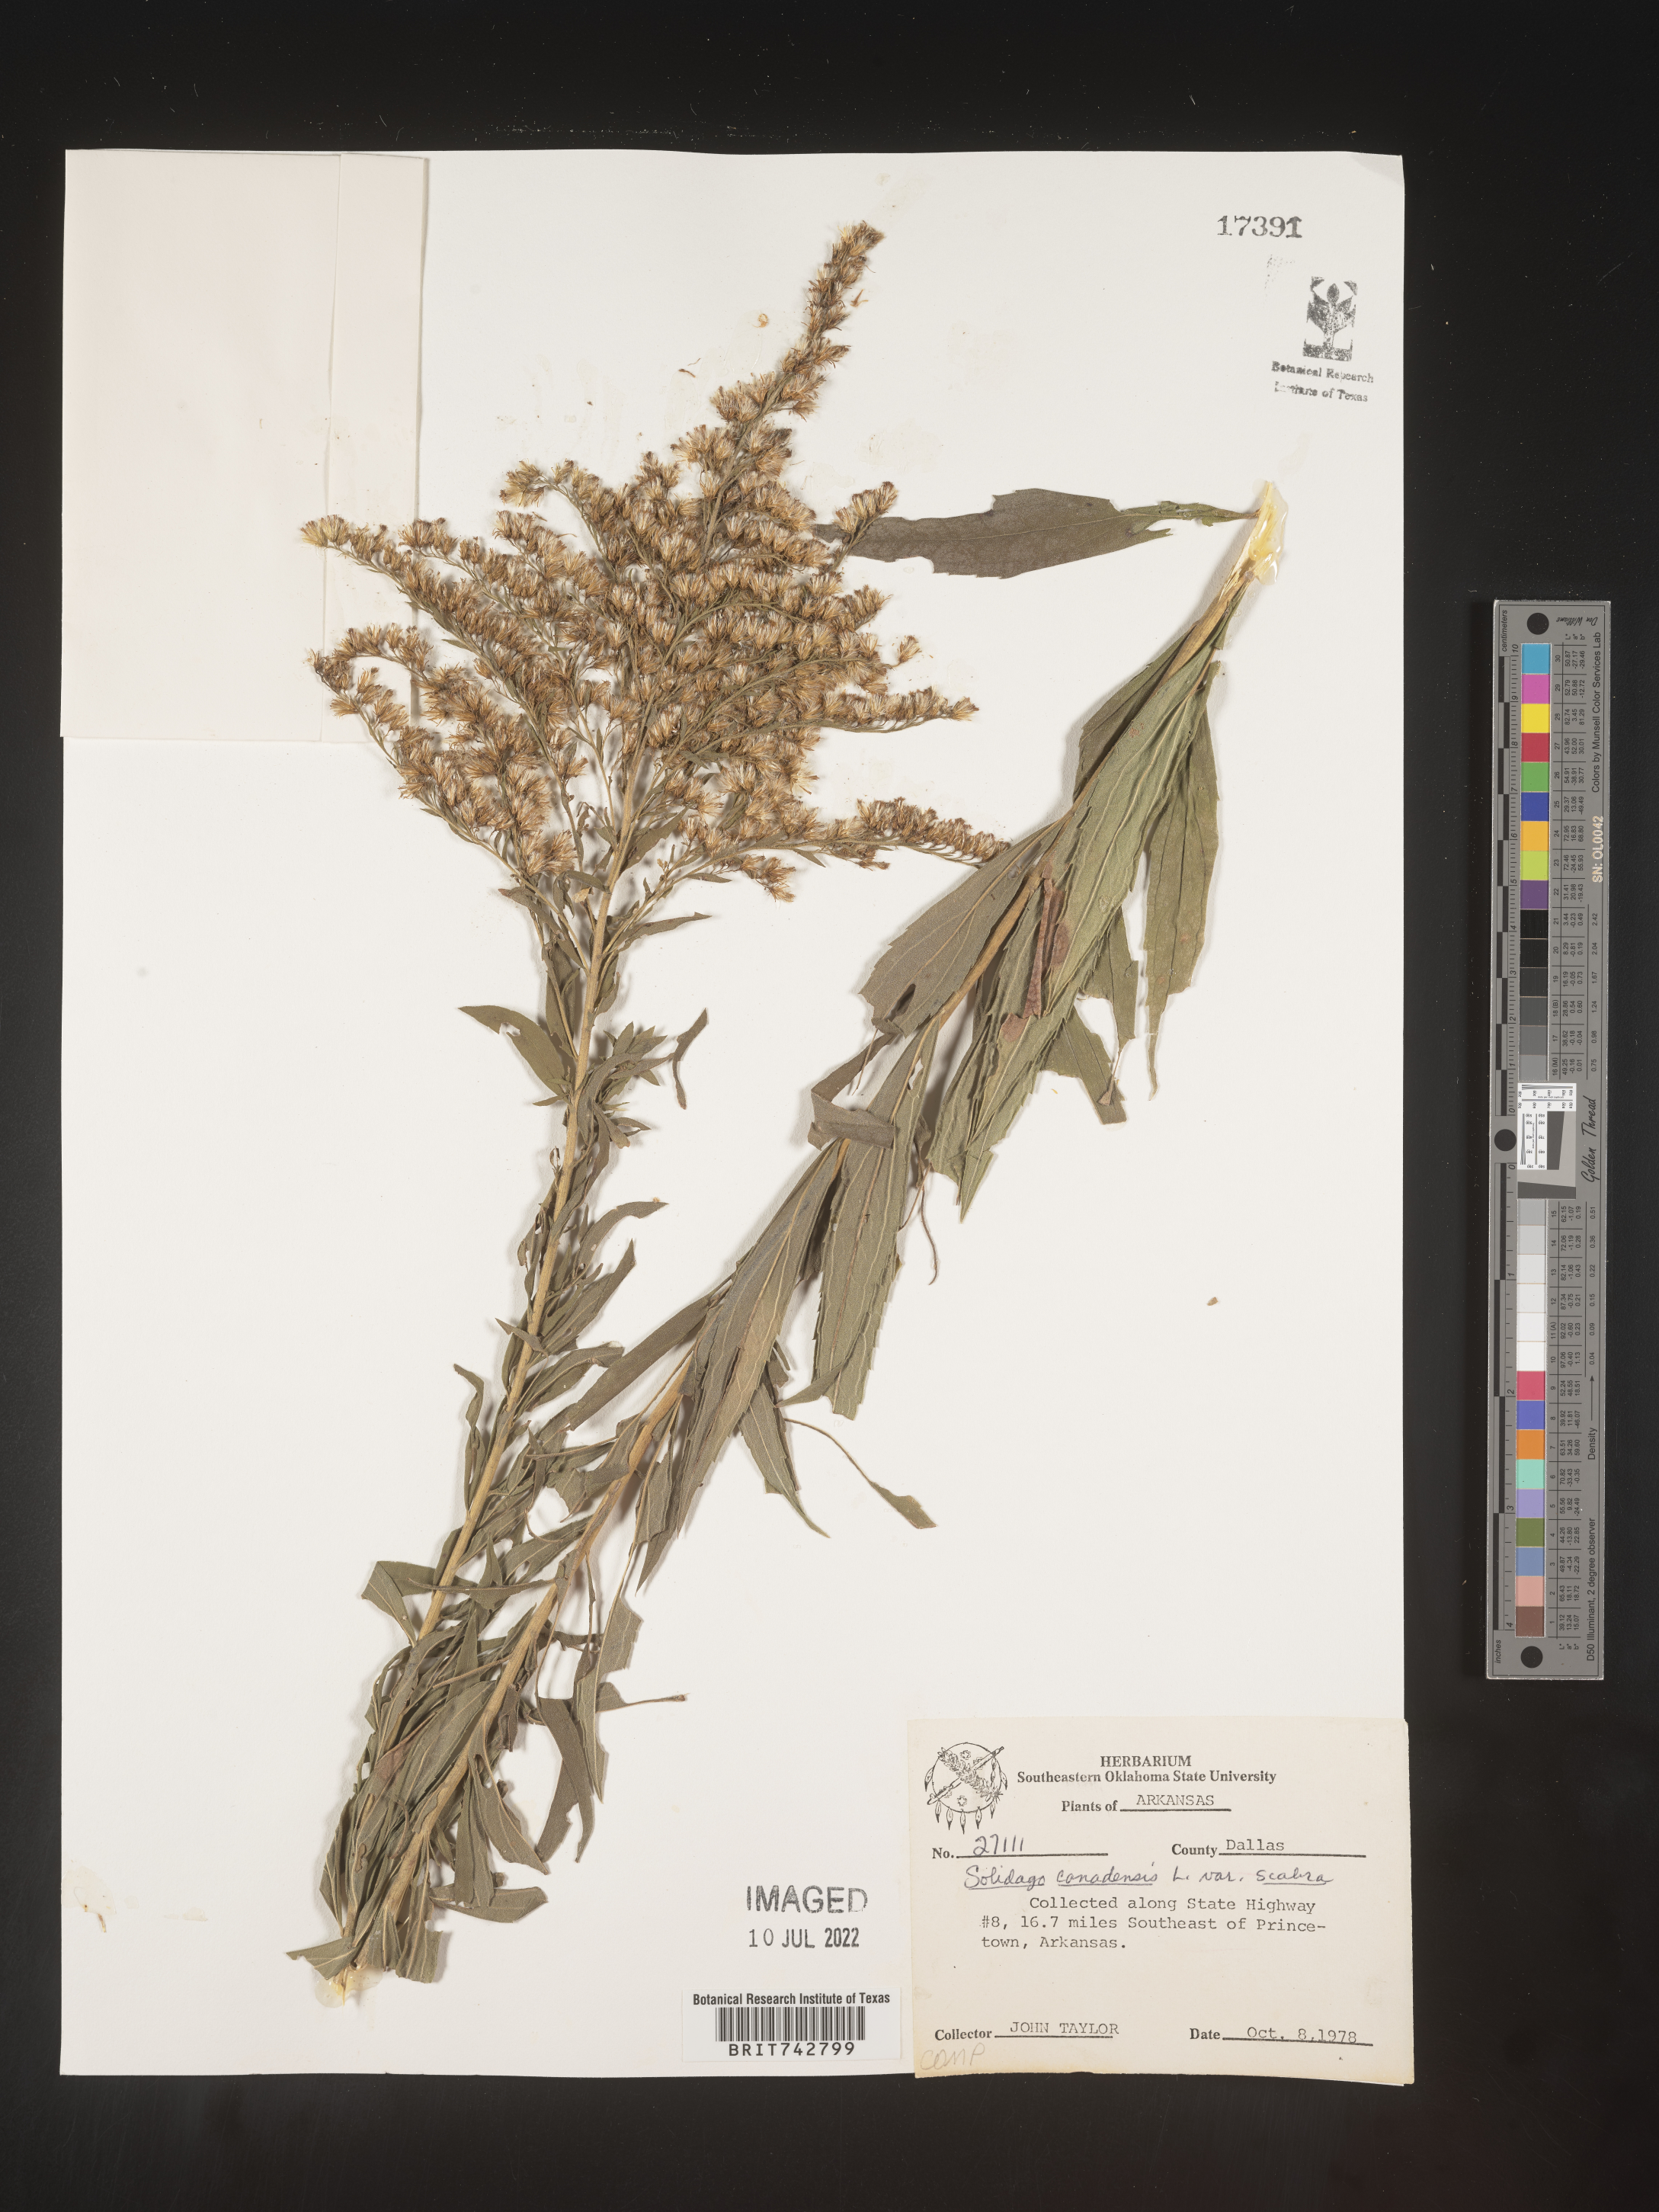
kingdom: Plantae
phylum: Tracheophyta
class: Magnoliopsida
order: Asterales
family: Asteraceae
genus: Solidago
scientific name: Solidago altissima
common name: Late goldenrod
